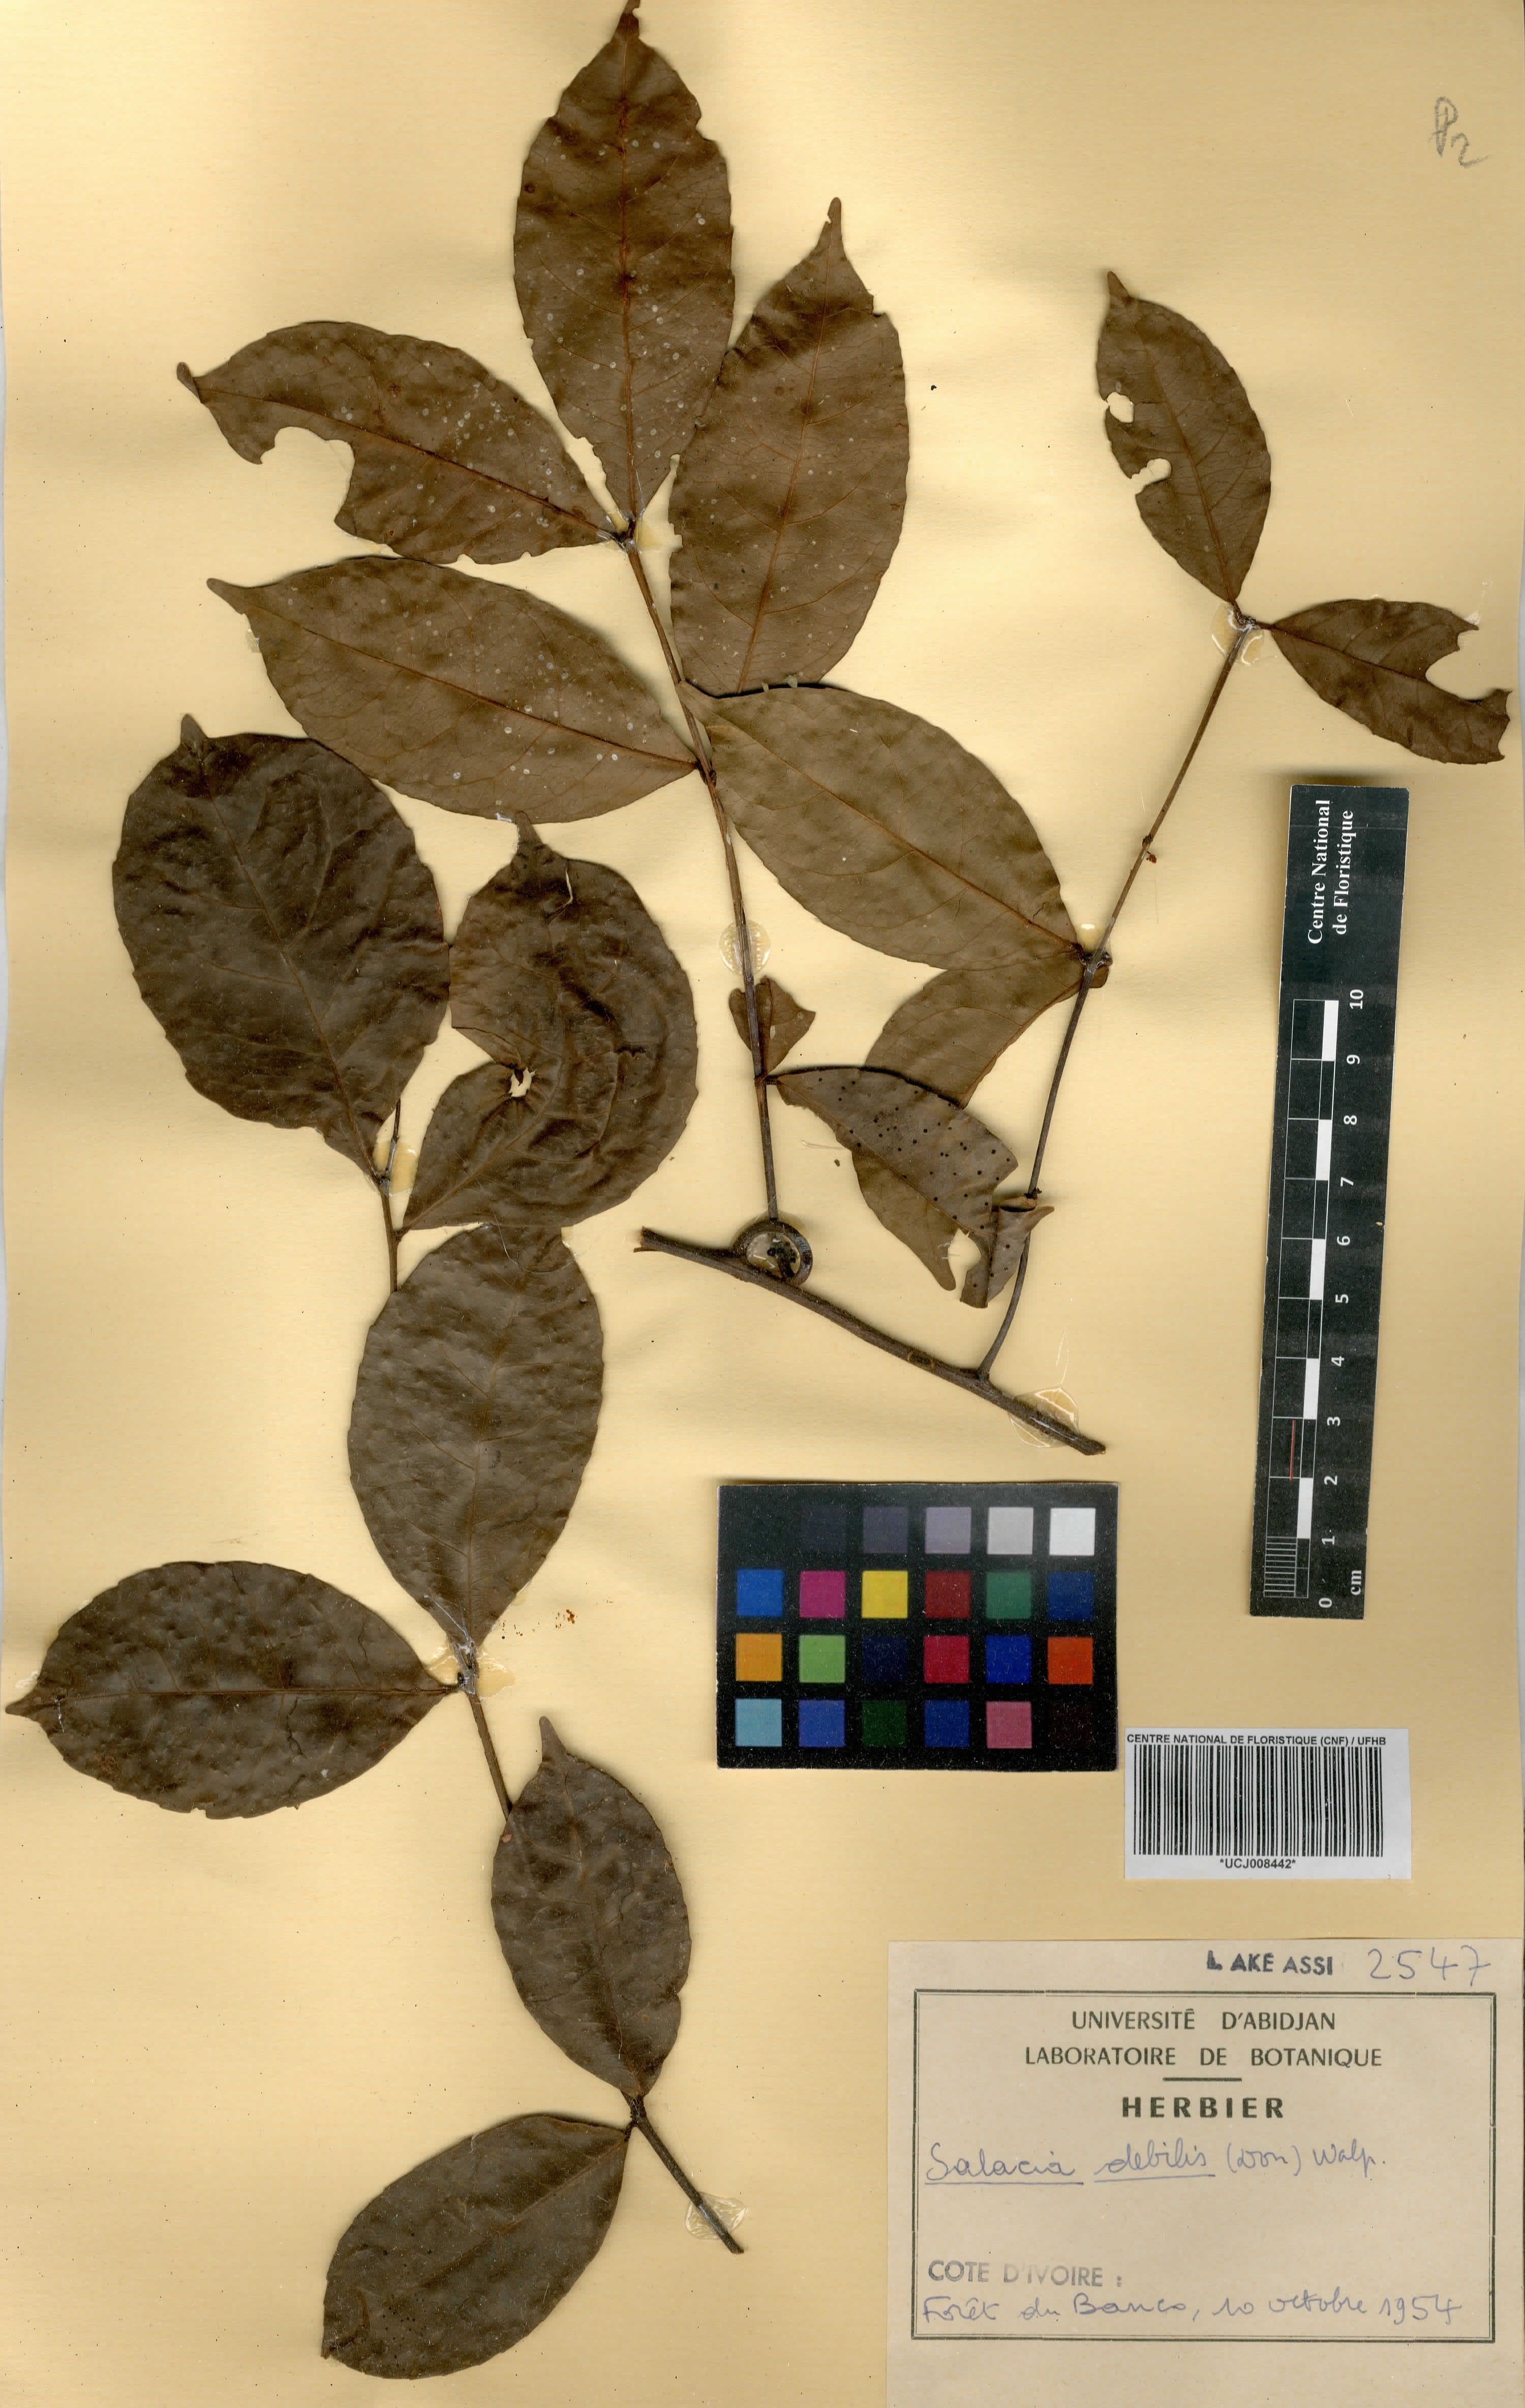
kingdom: Plantae
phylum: Tracheophyta
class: Magnoliopsida
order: Celastrales
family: Celastraceae
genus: Salacia
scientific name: Salacia debilis
